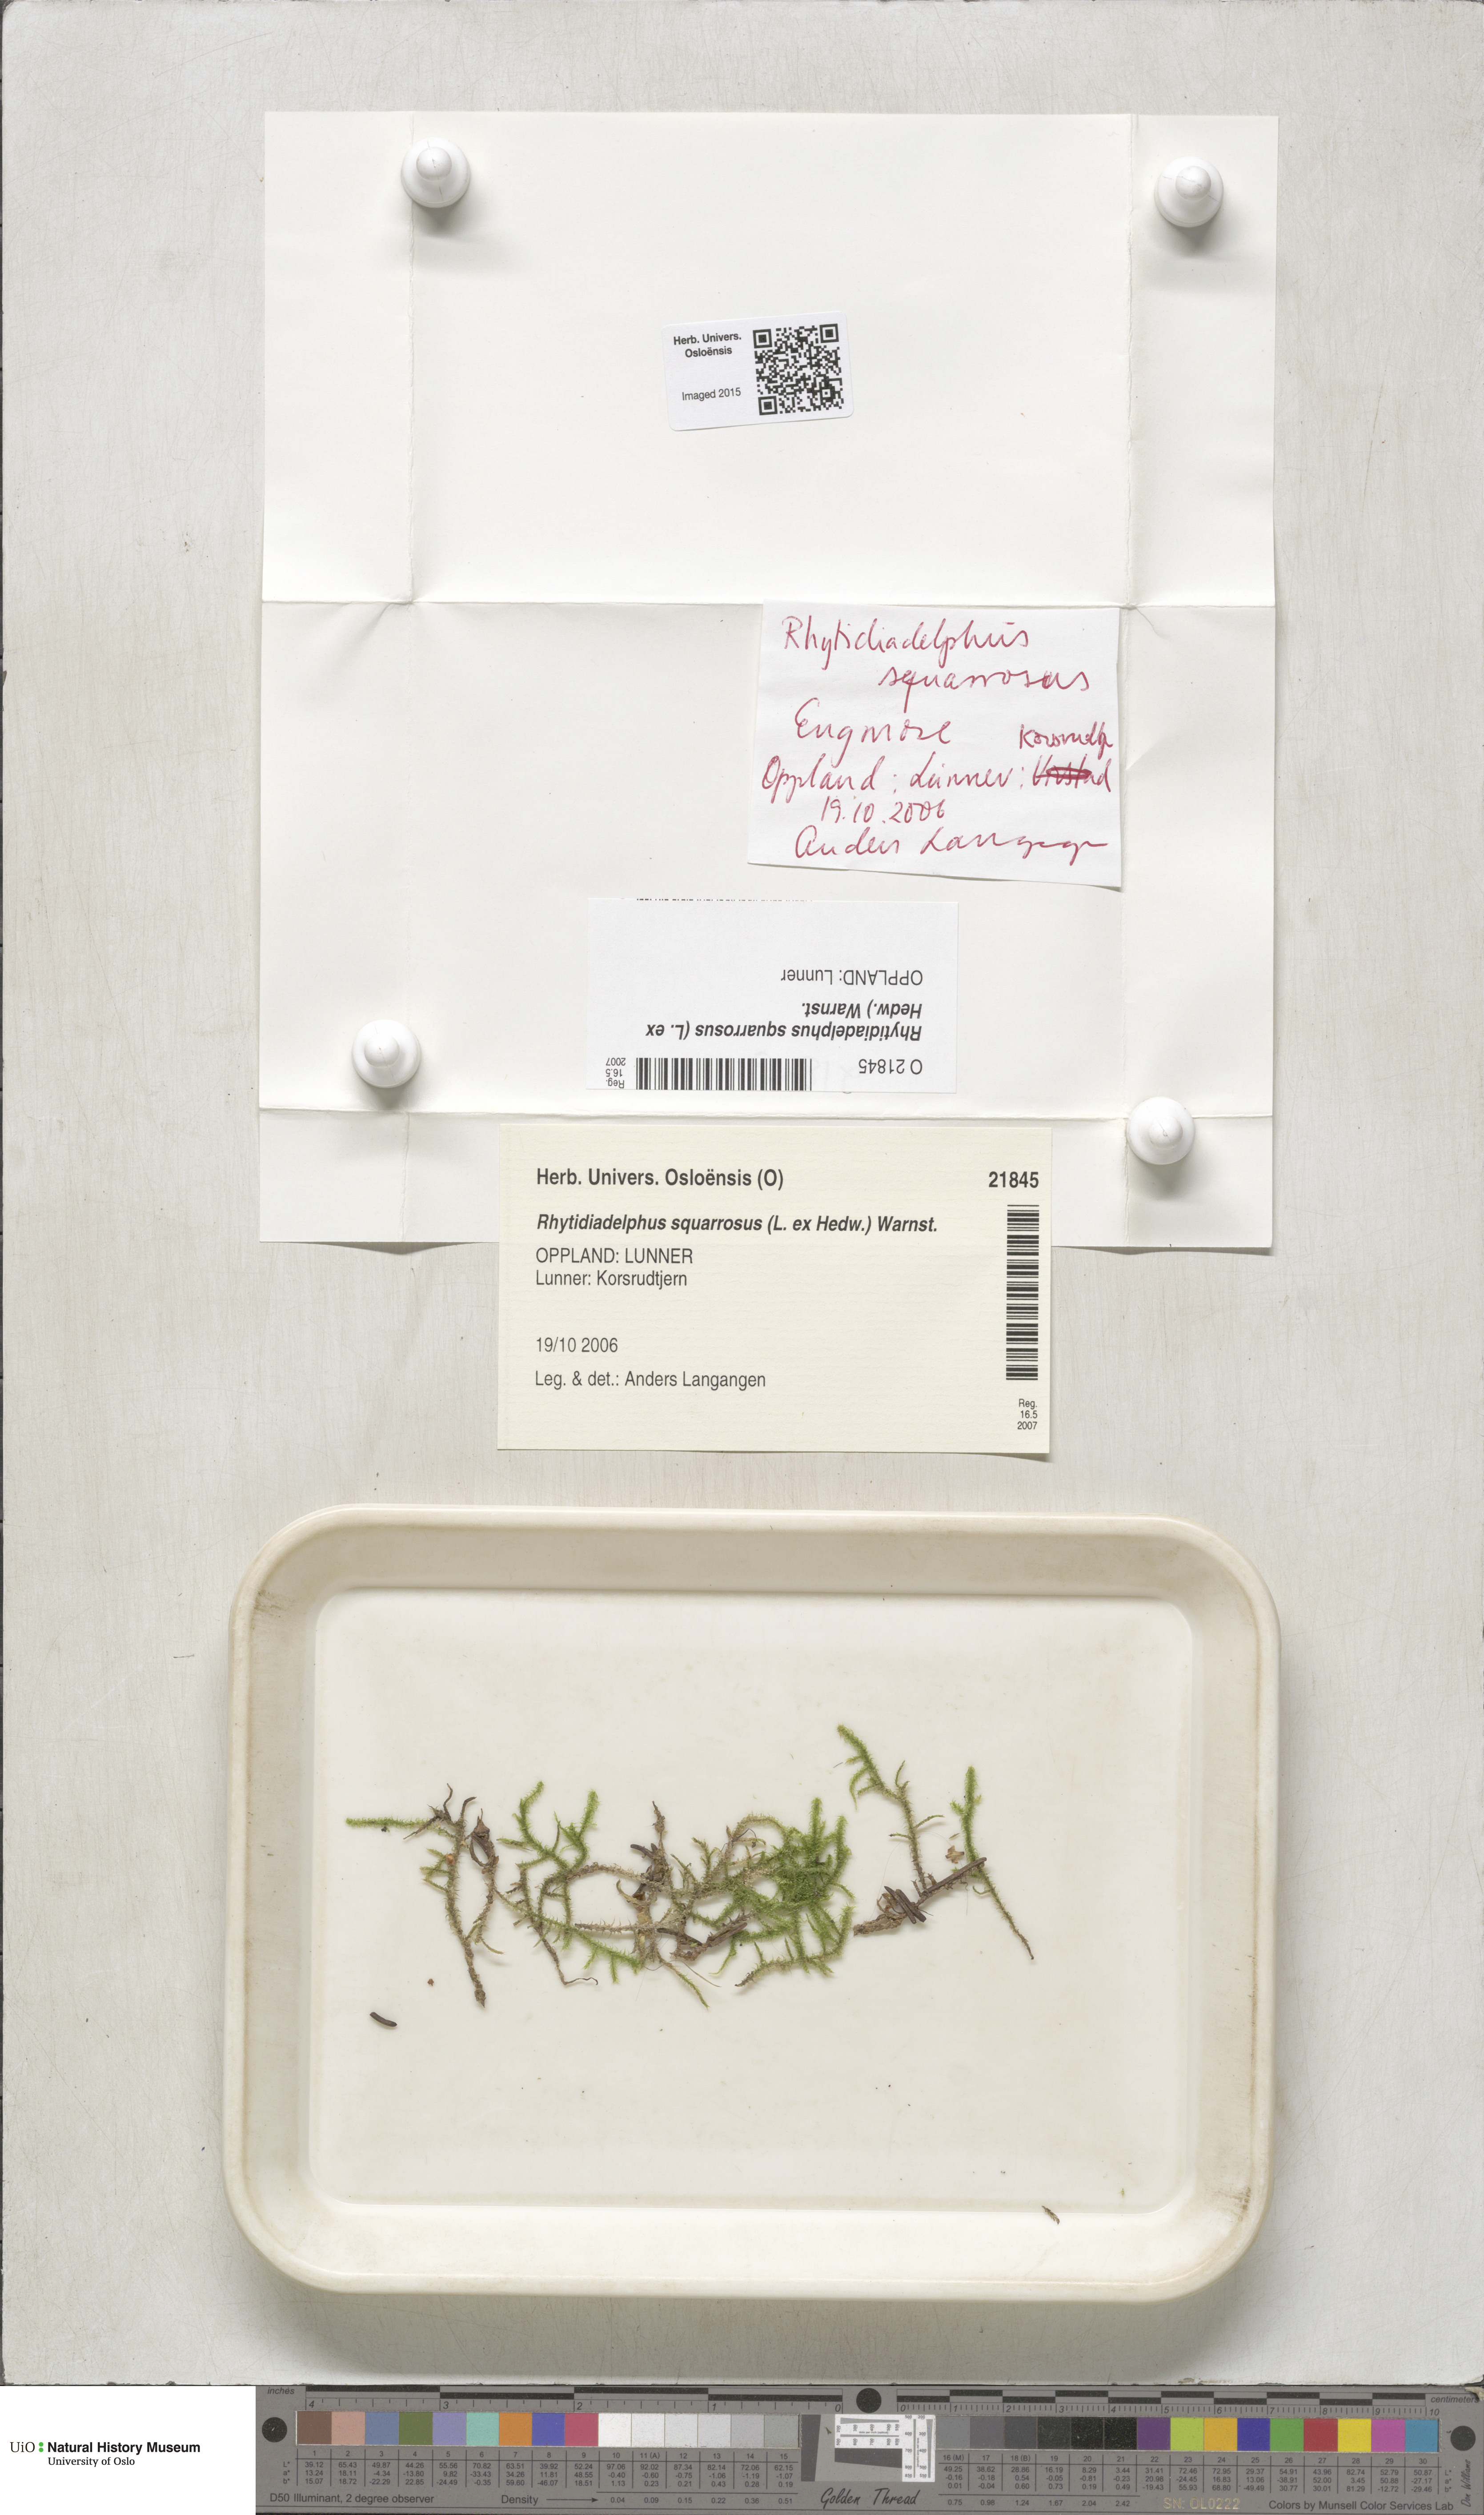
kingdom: Plantae
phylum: Bryophyta
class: Bryopsida
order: Hypnales
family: Hylocomiaceae
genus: Rhytidiadelphus
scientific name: Rhytidiadelphus squarrosus
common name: Springy turf-moss
